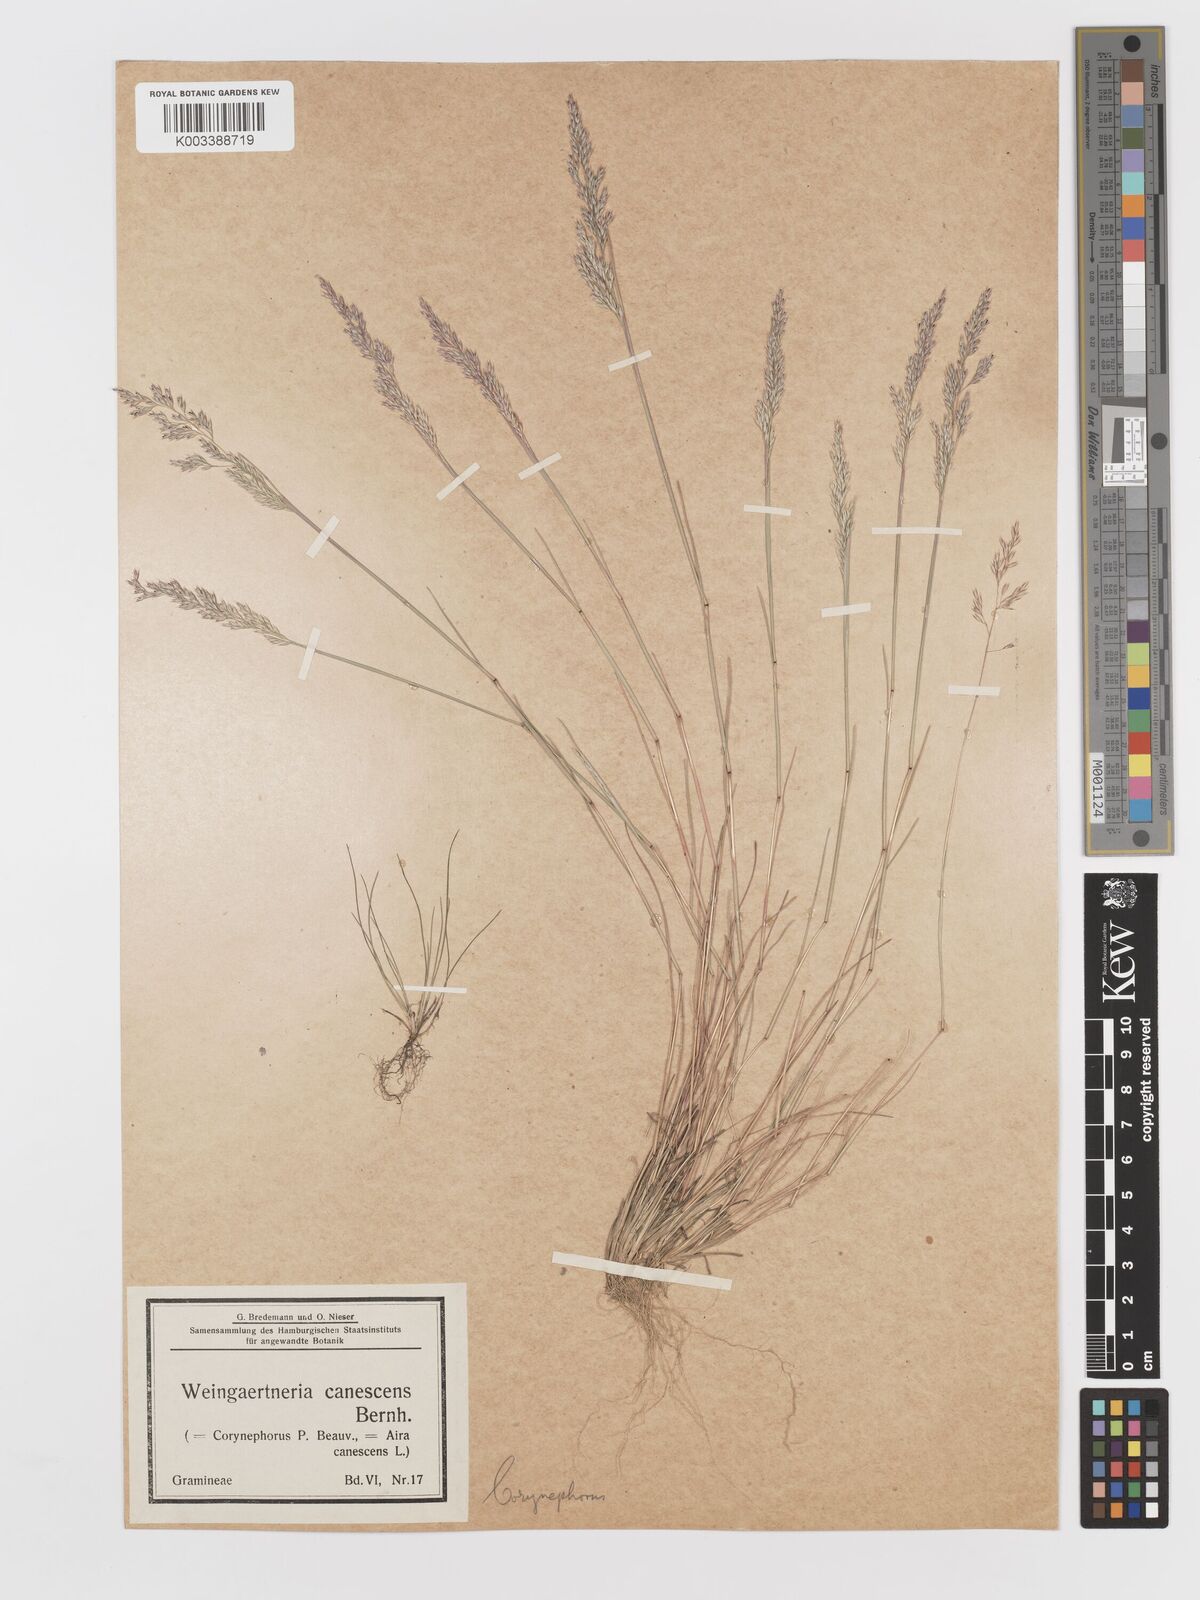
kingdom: Plantae
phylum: Tracheophyta
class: Liliopsida
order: Poales
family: Poaceae
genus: Corynephorus
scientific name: Corynephorus canescens
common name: Grey hair-grass
